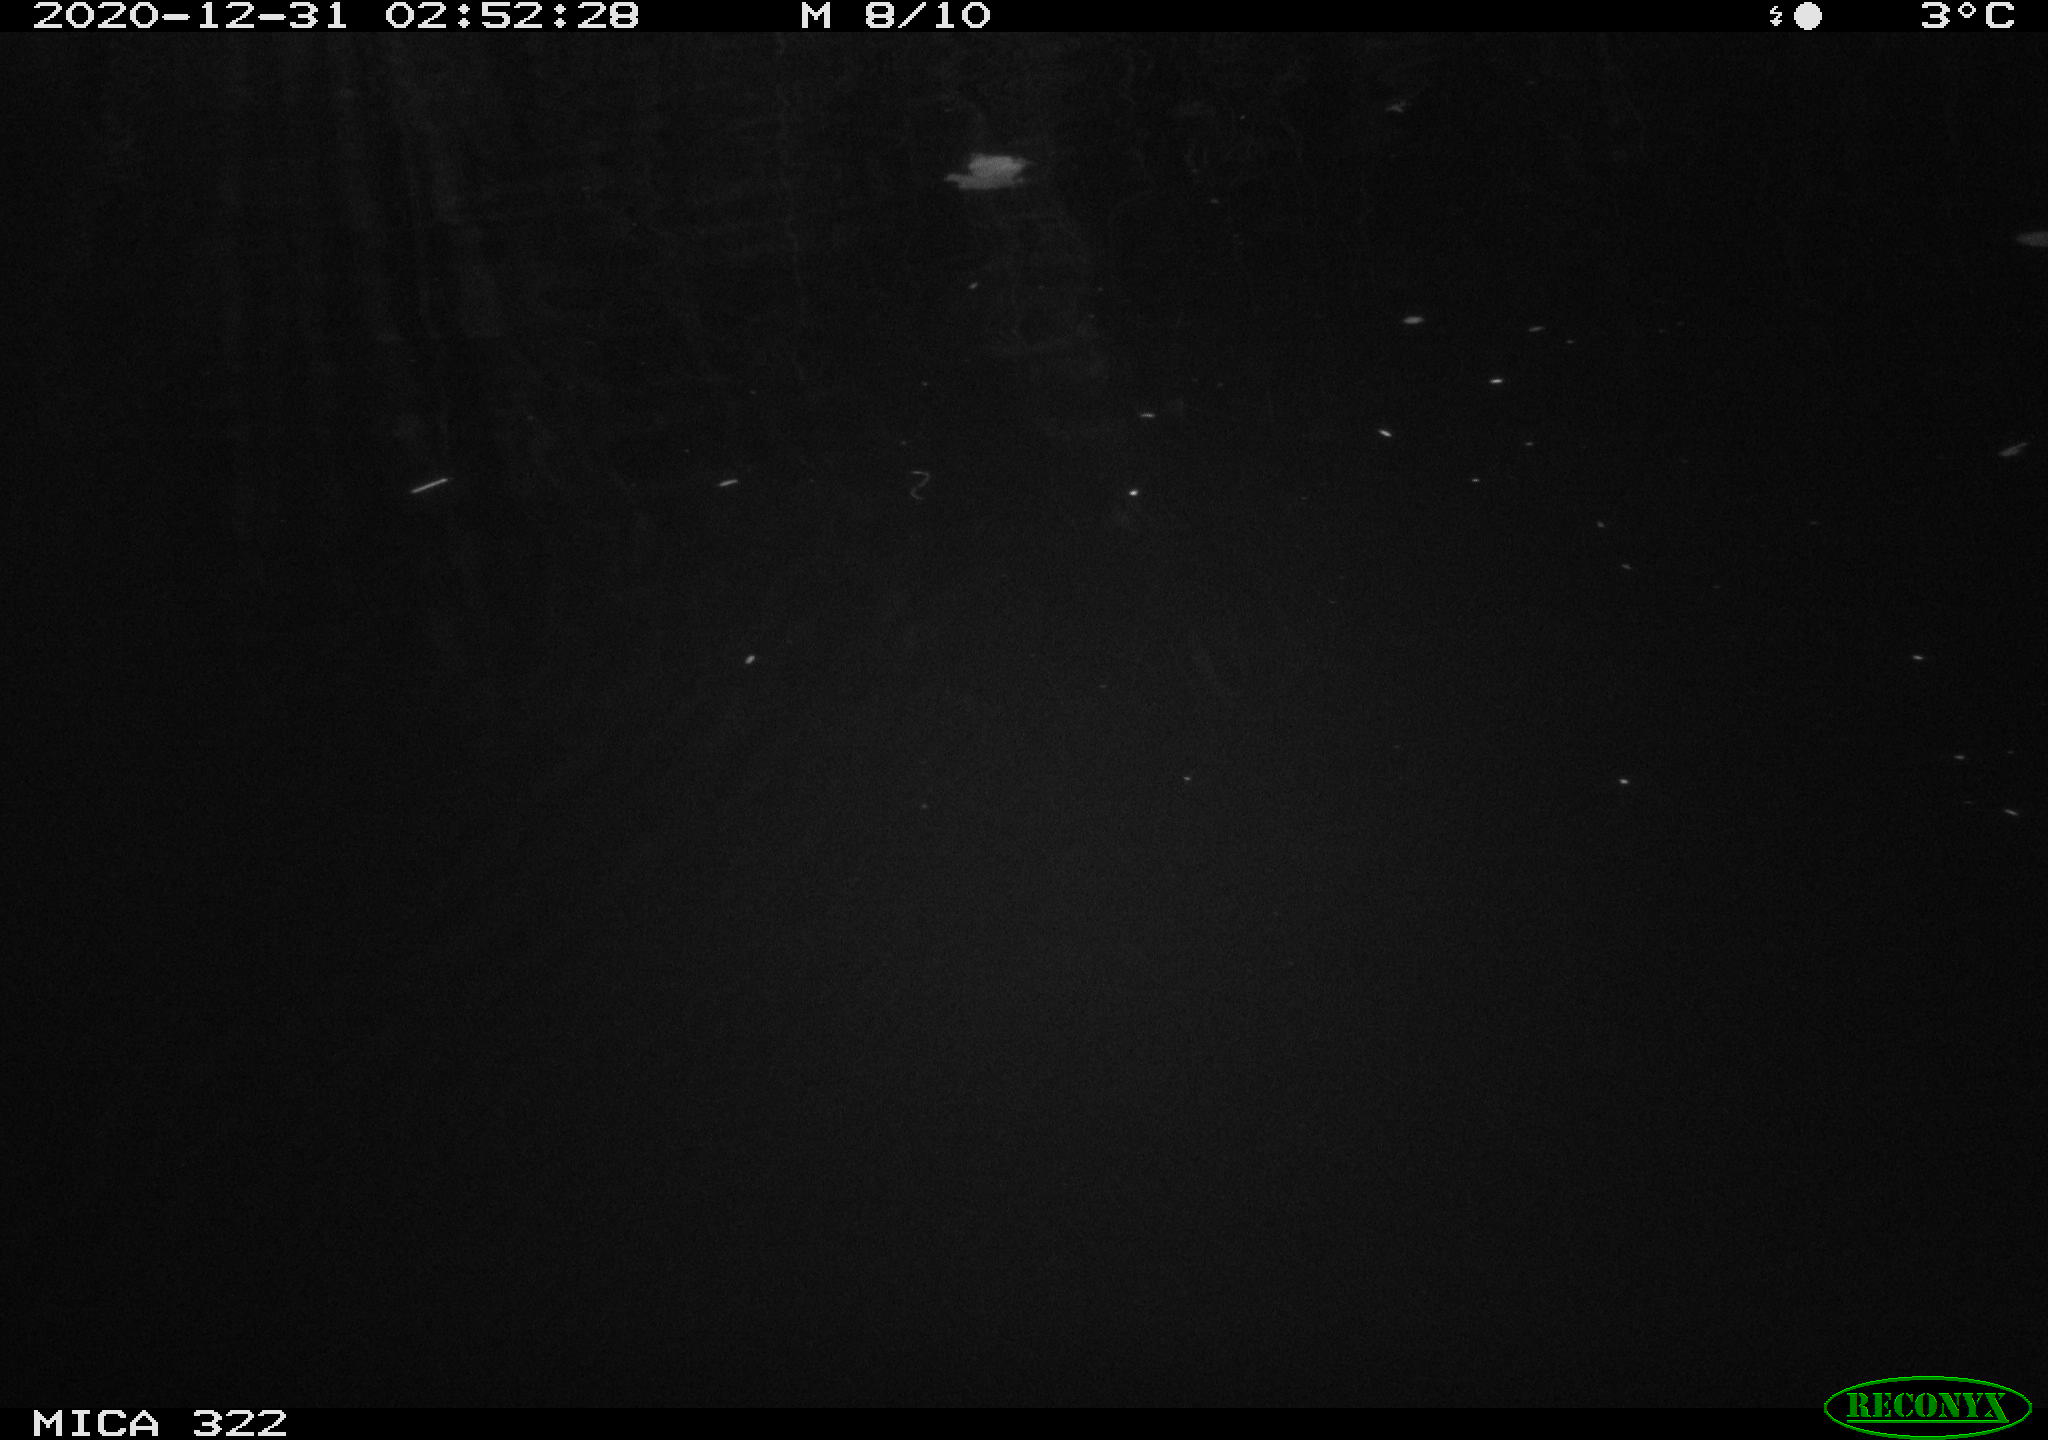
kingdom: Animalia
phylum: Chordata
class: Mammalia
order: Rodentia
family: Muridae
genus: Rattus
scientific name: Rattus norvegicus
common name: Brown rat
